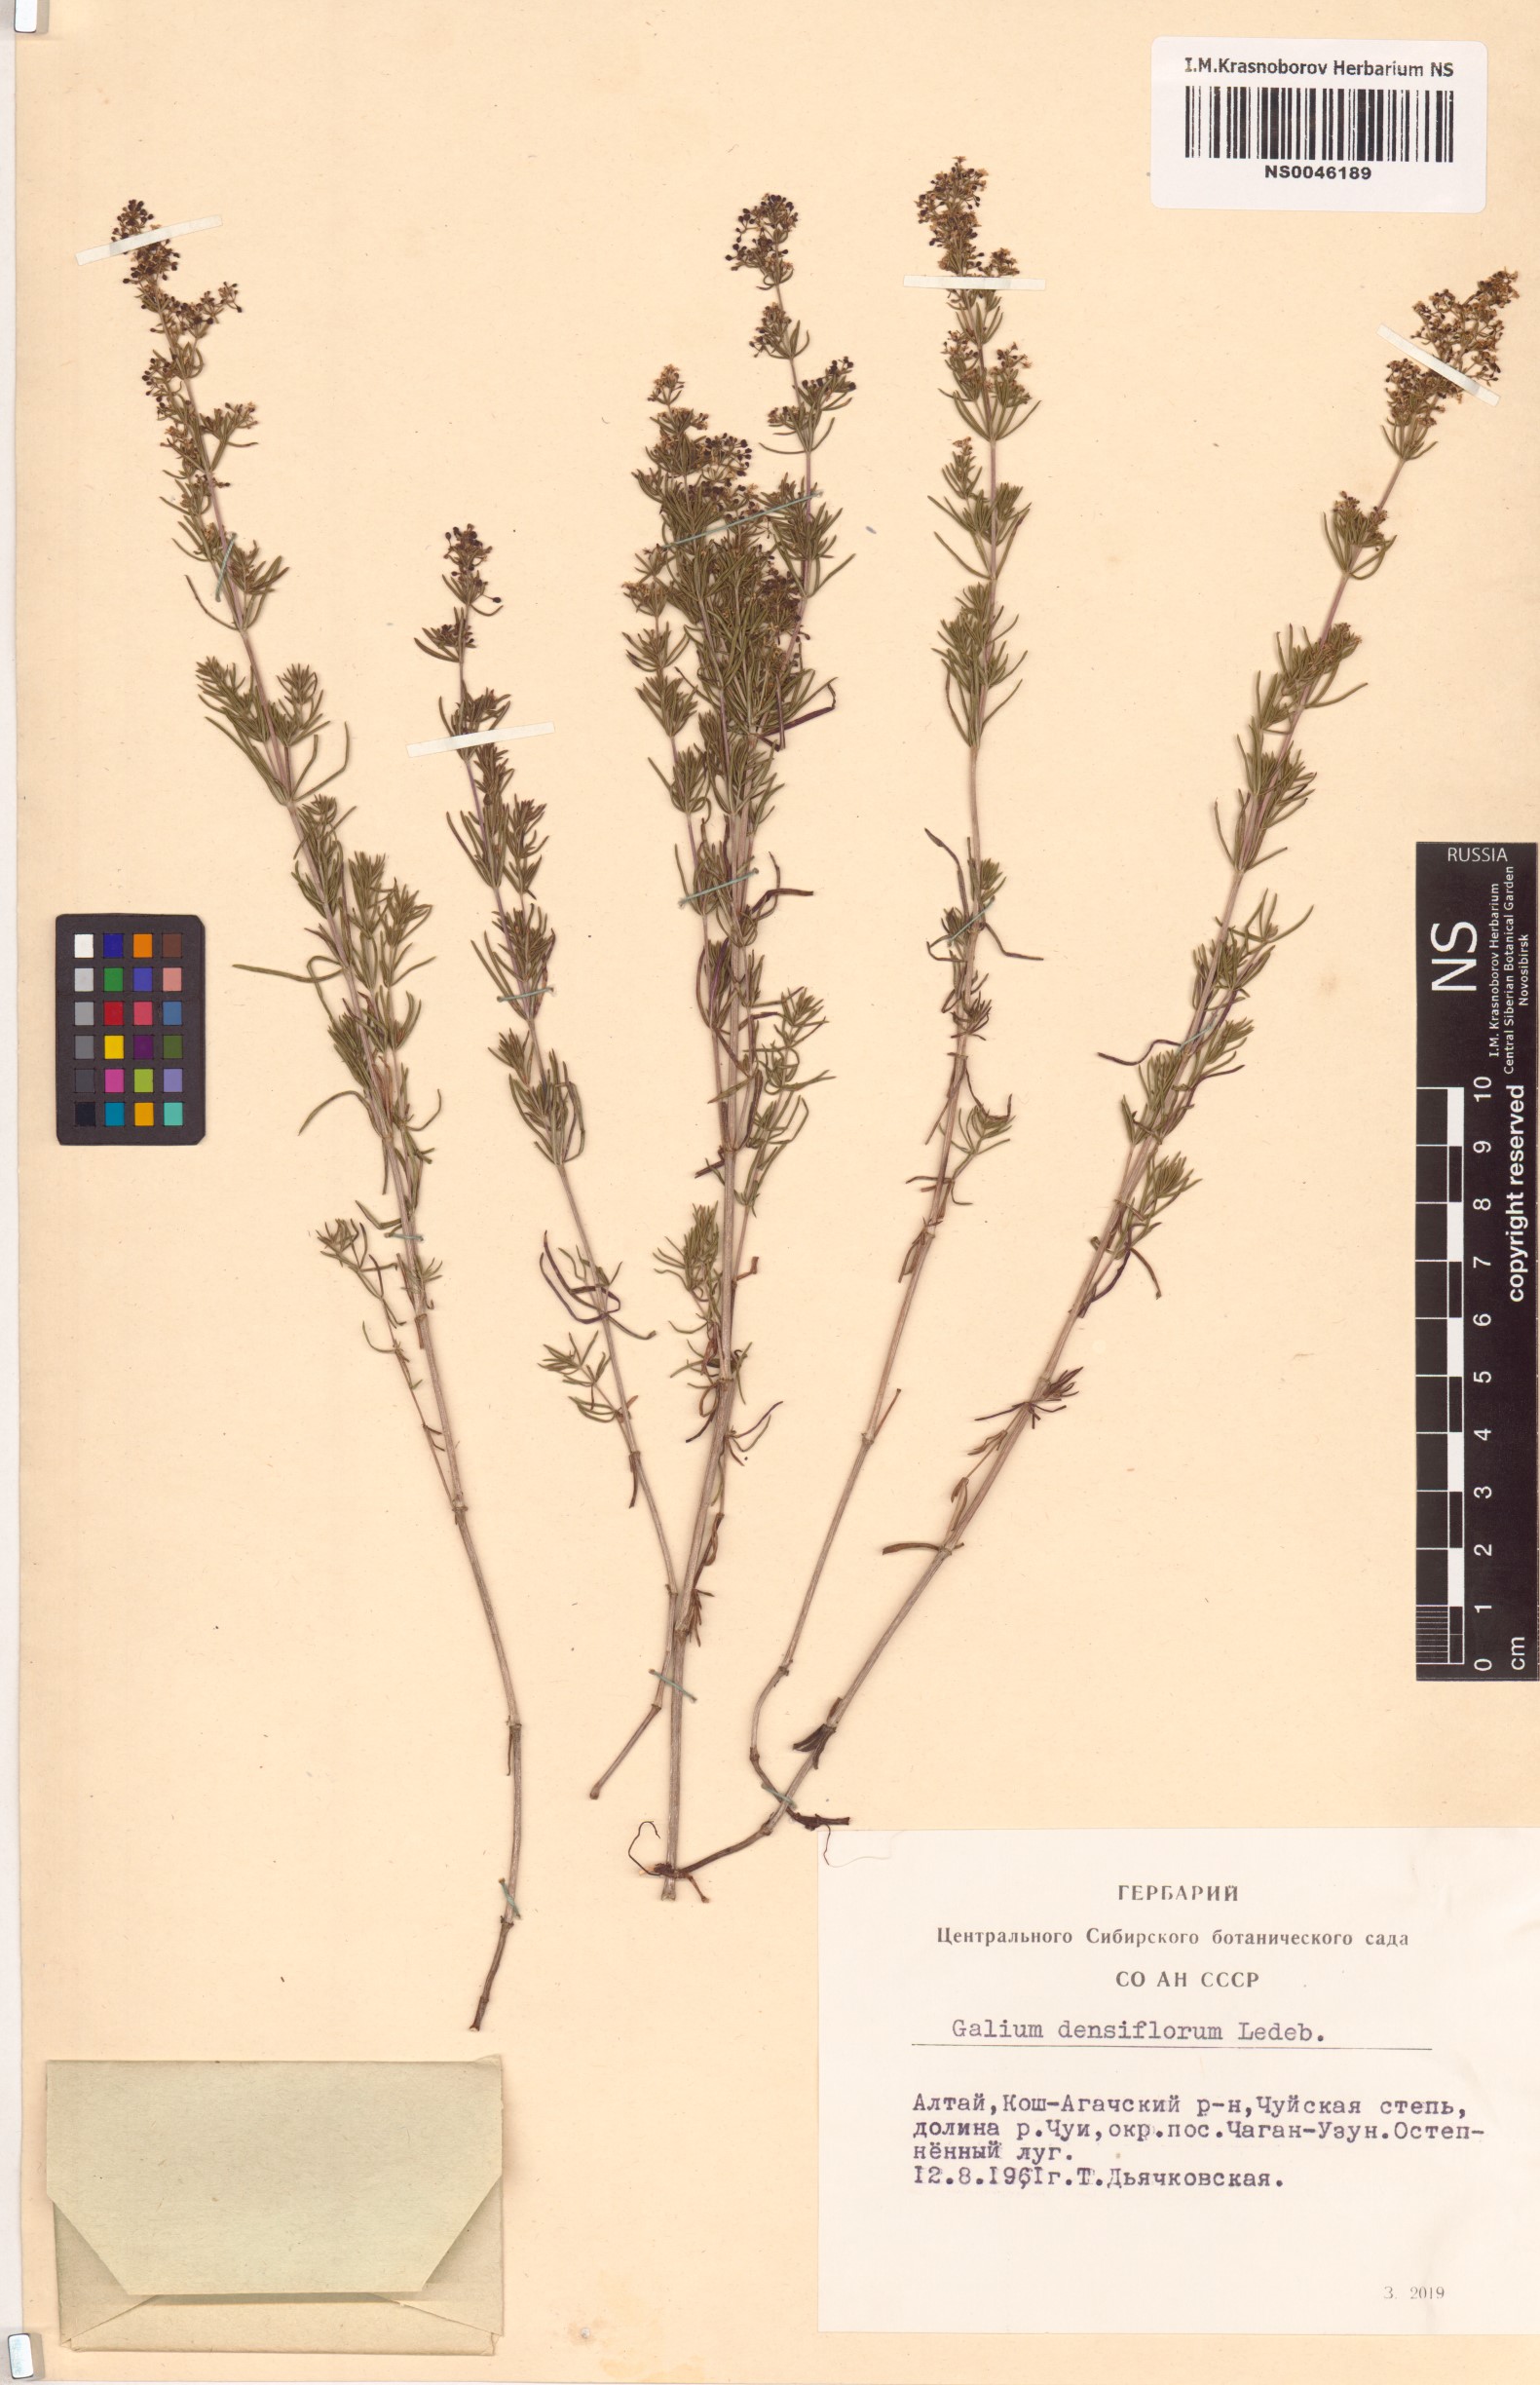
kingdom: Plantae
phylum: Tracheophyta
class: Magnoliopsida
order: Gentianales
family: Rubiaceae
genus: Galium
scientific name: Galium densiflorum
